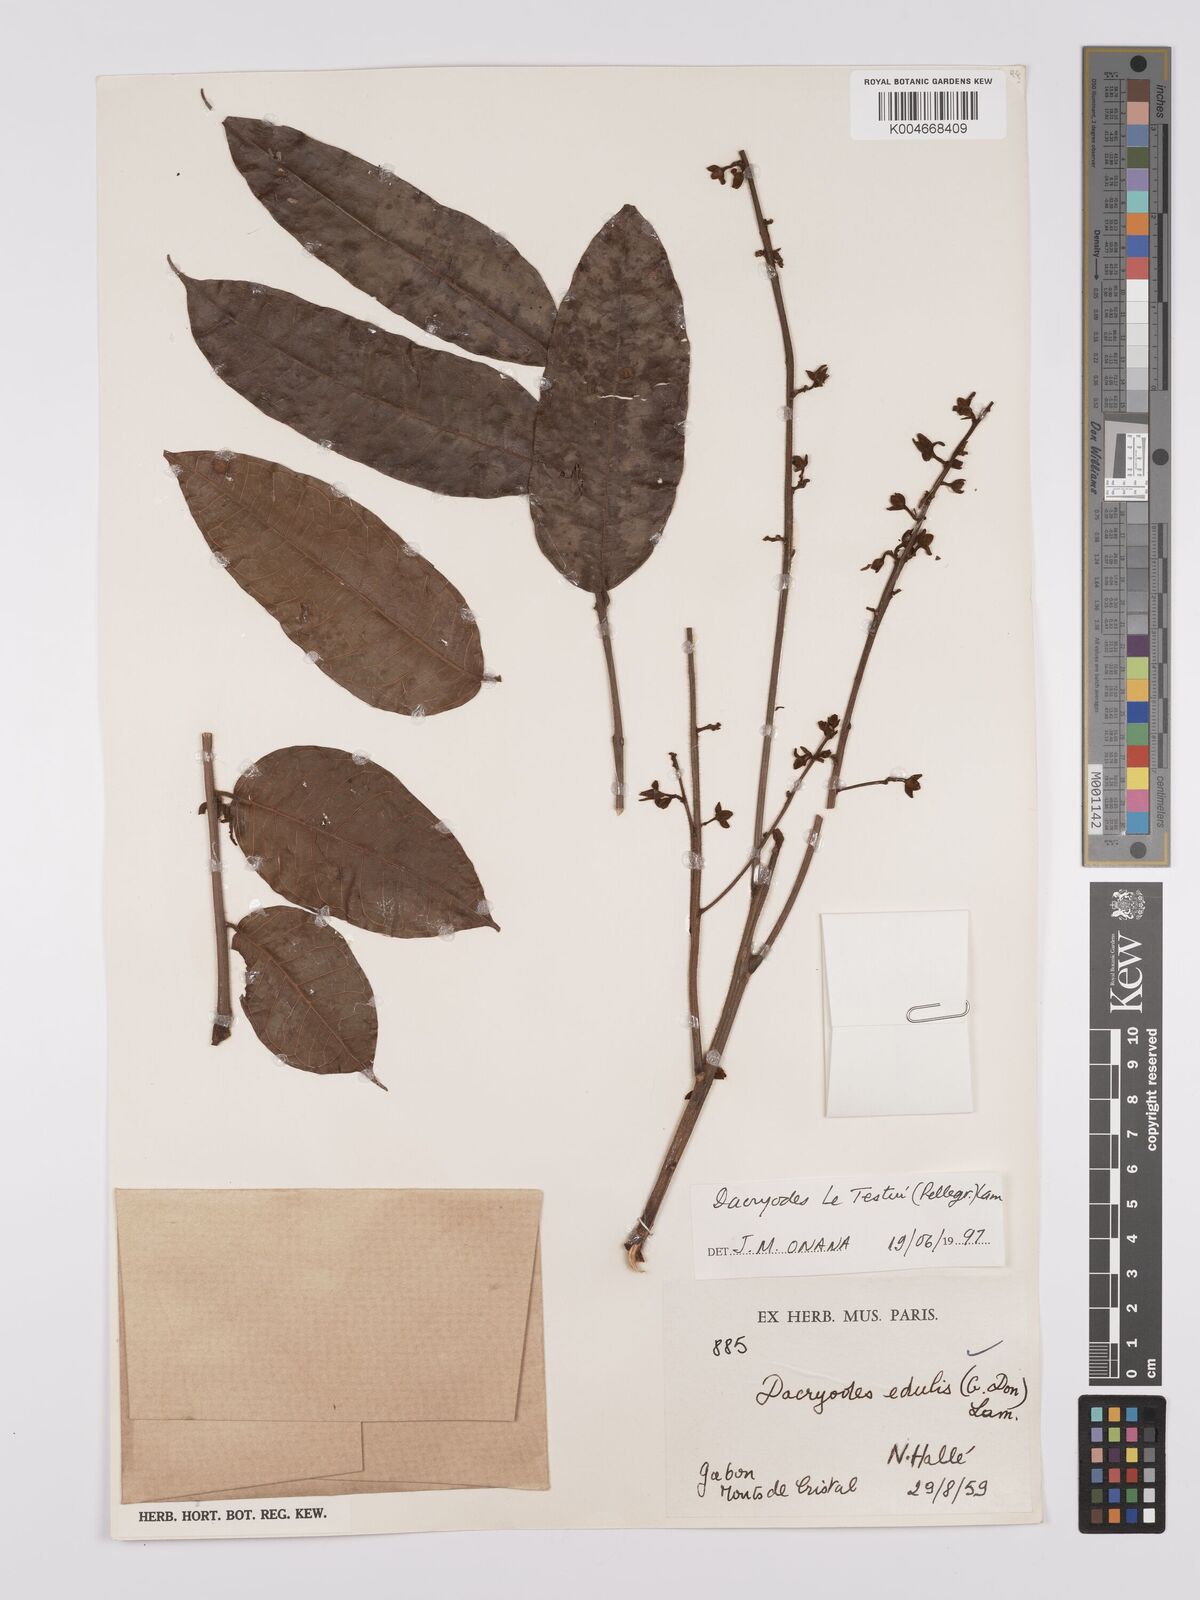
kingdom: Plantae
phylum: Tracheophyta
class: Magnoliopsida
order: Sapindales
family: Burseraceae
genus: Pachylobus
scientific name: Pachylobus letestui
